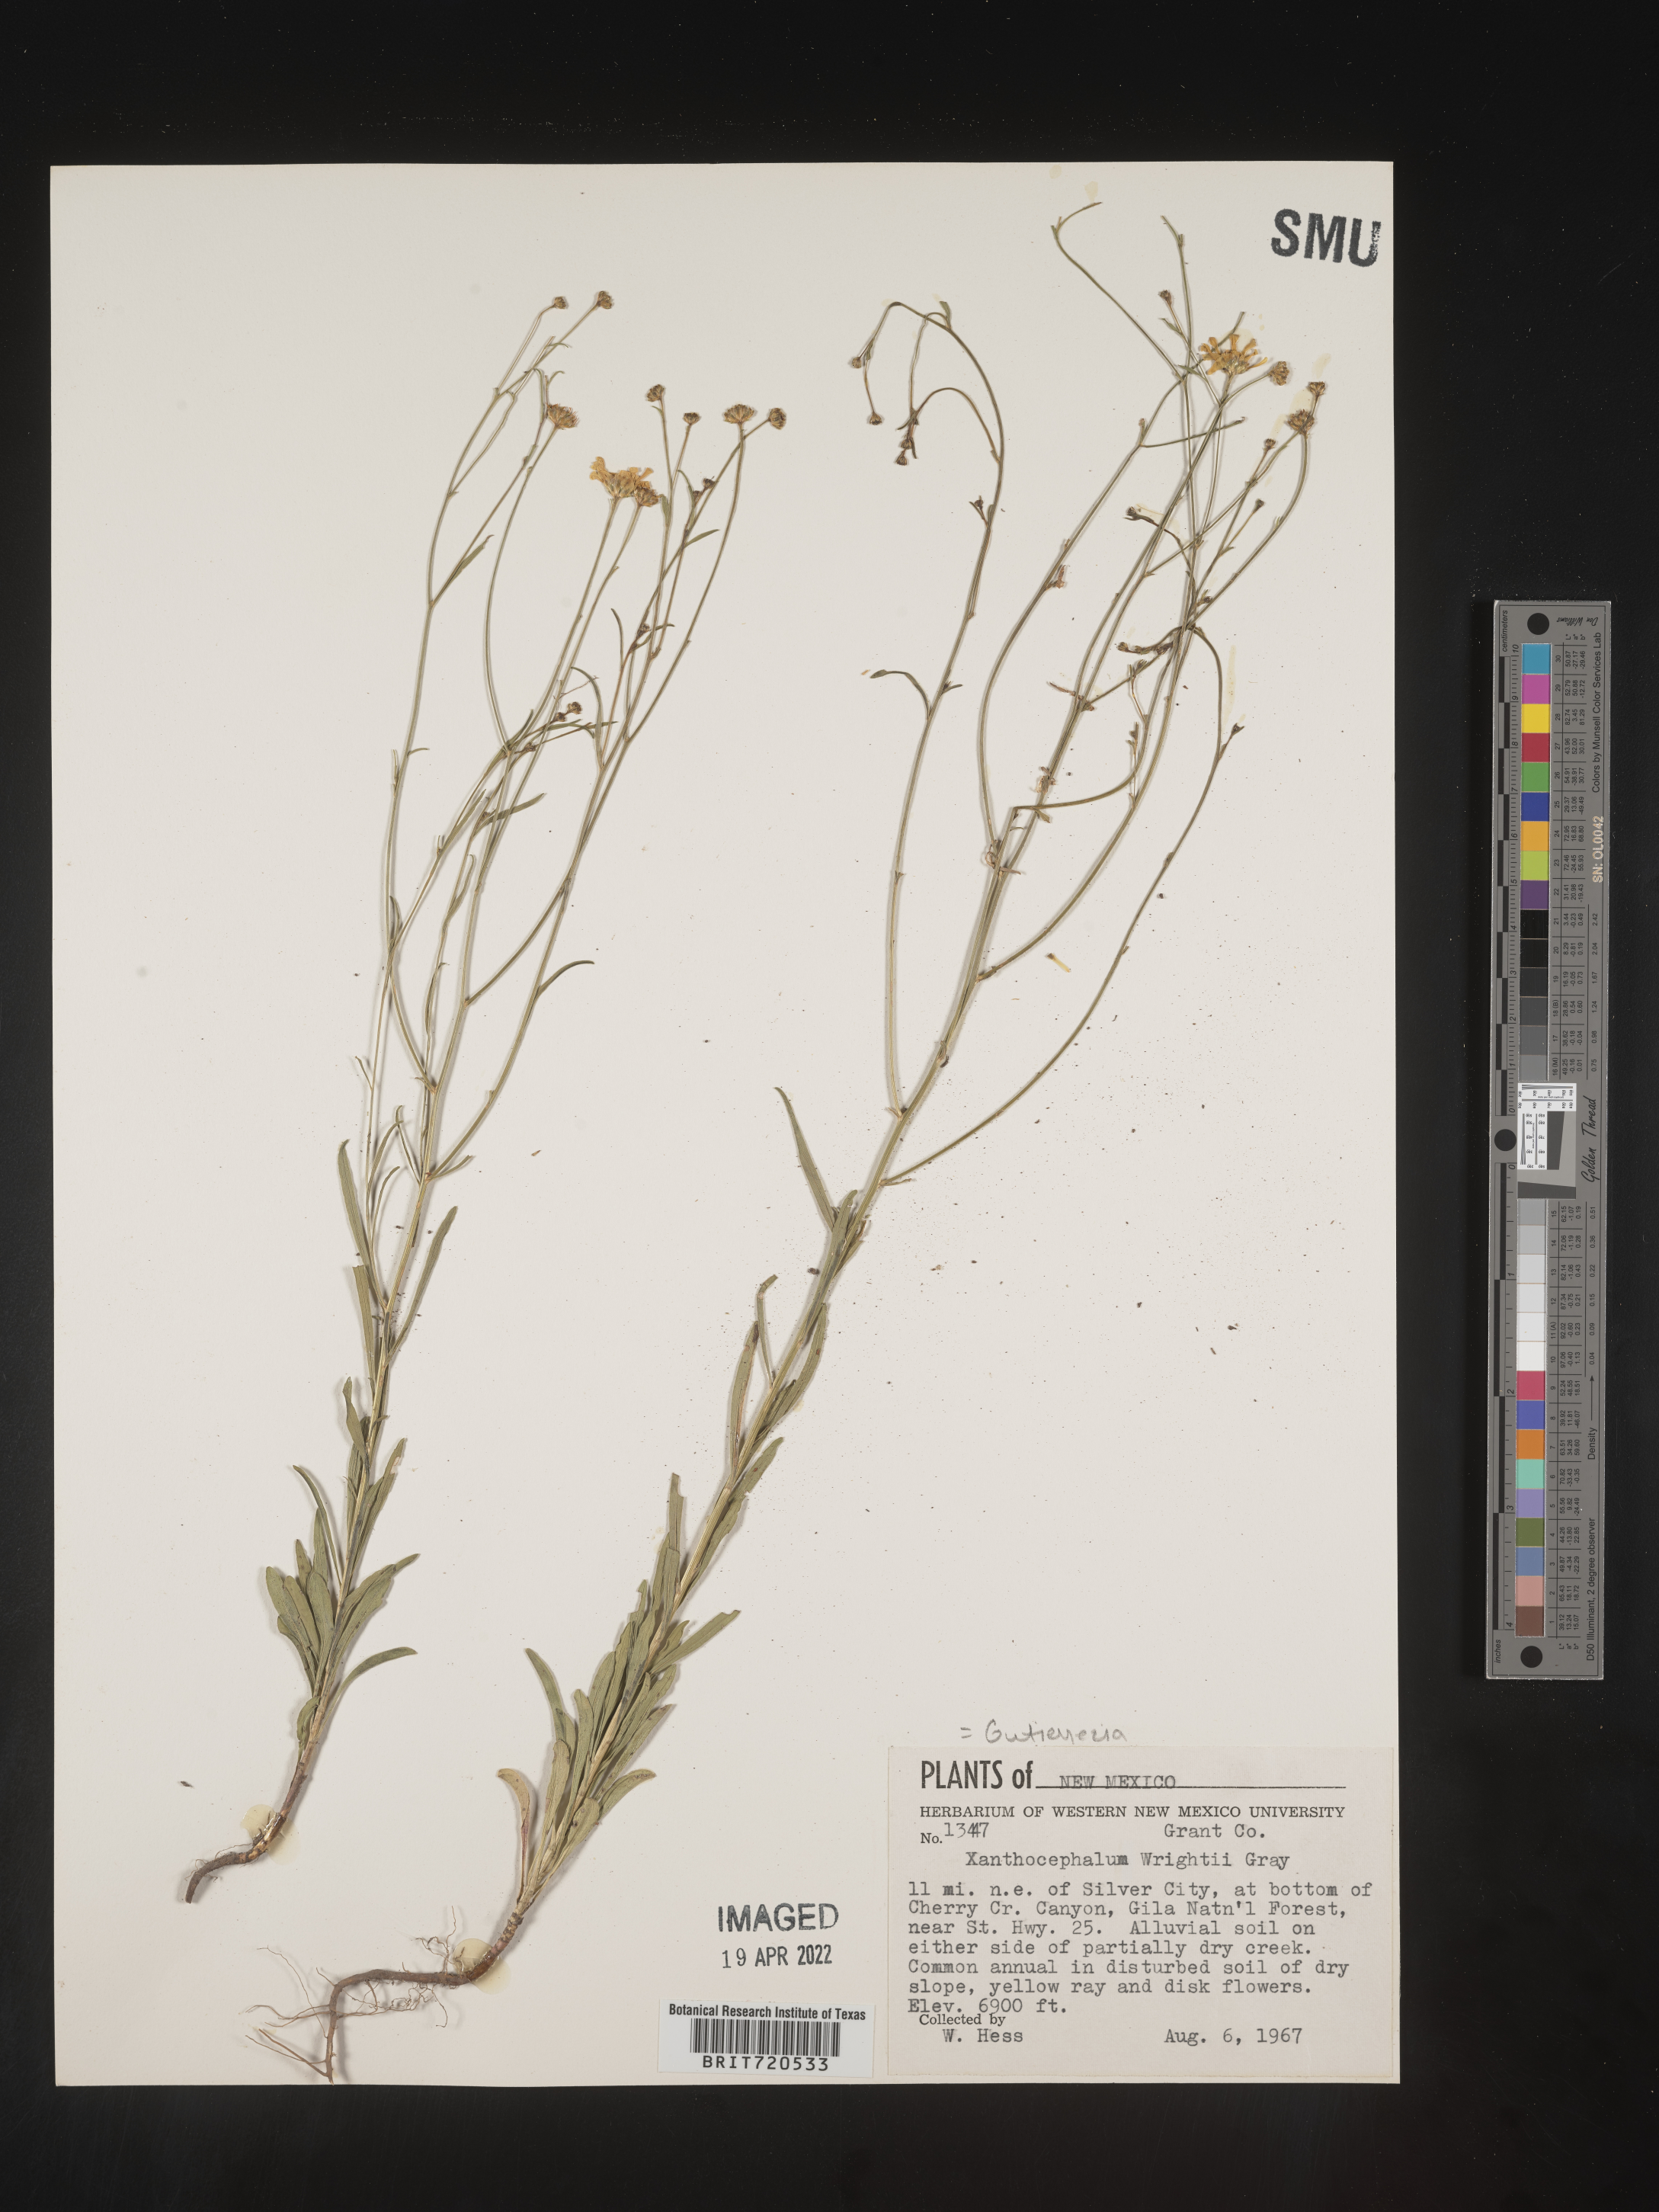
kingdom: Plantae
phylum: Tracheophyta
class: Magnoliopsida
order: Asterales
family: Asteraceae
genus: Gutierrezia
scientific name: Gutierrezia wrightii
